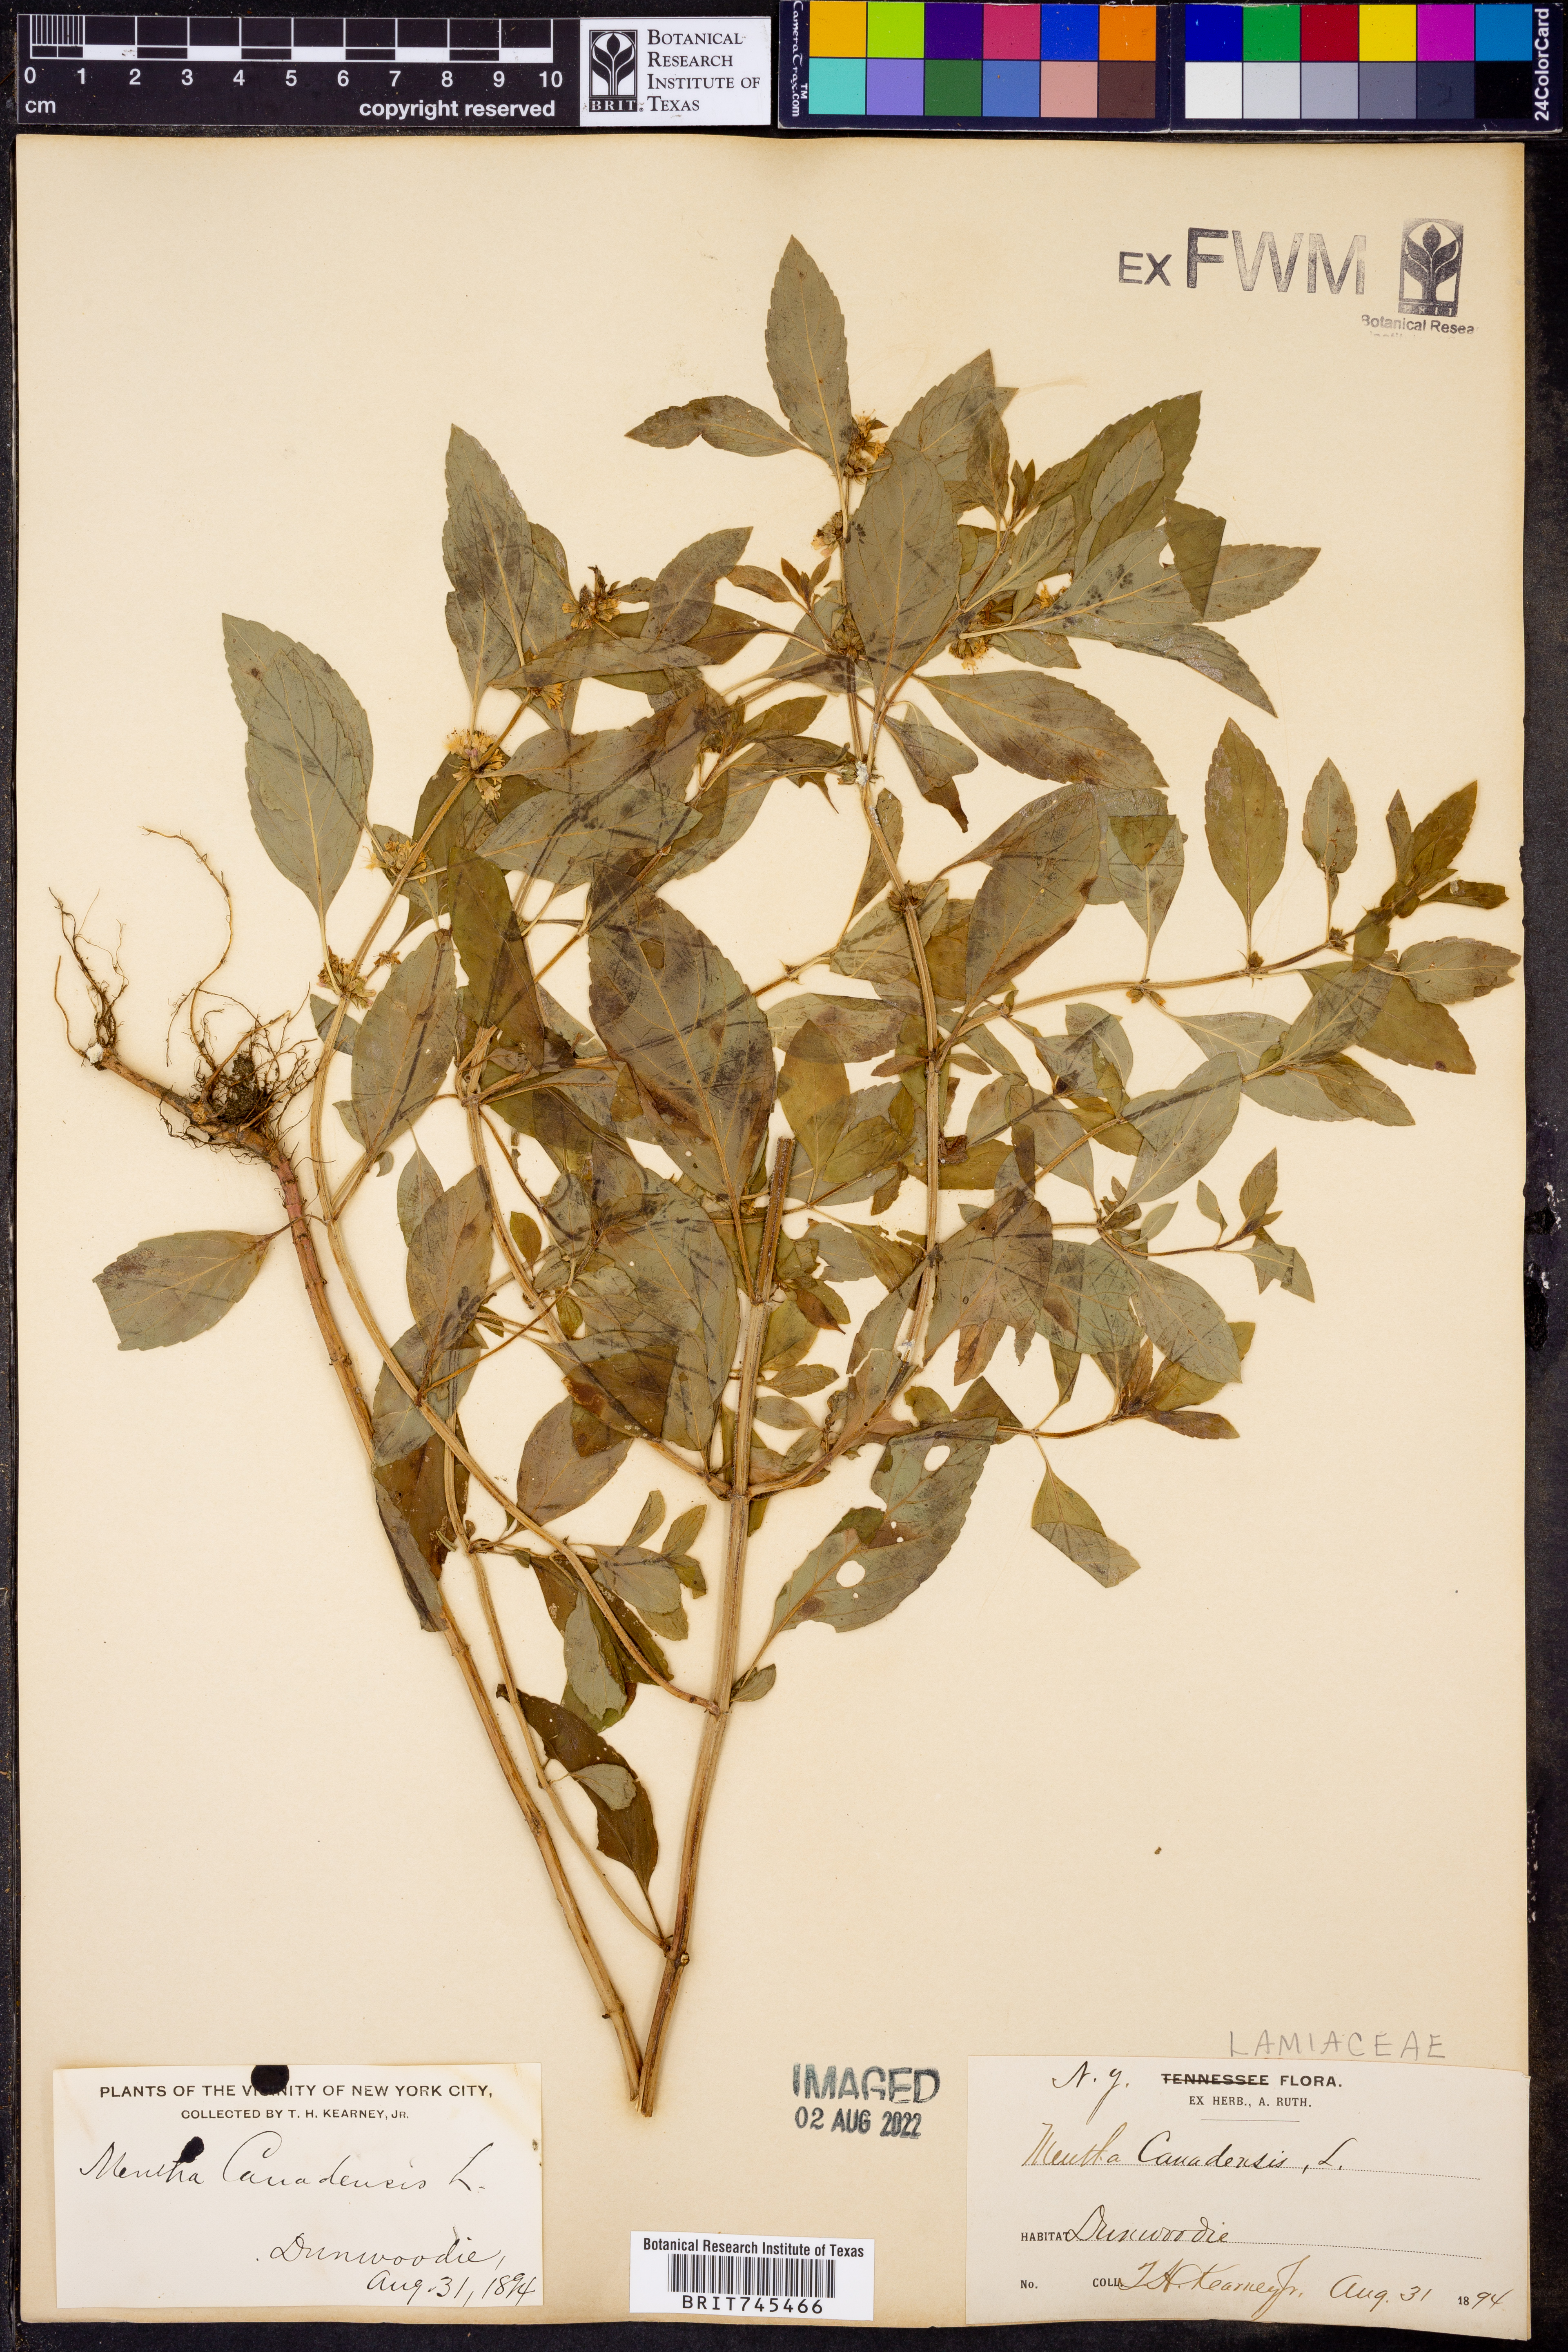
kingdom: Plantae
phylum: Tracheophyta
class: Magnoliopsida
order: Lamiales
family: Lamiaceae
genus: Mentha
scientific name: Mentha
